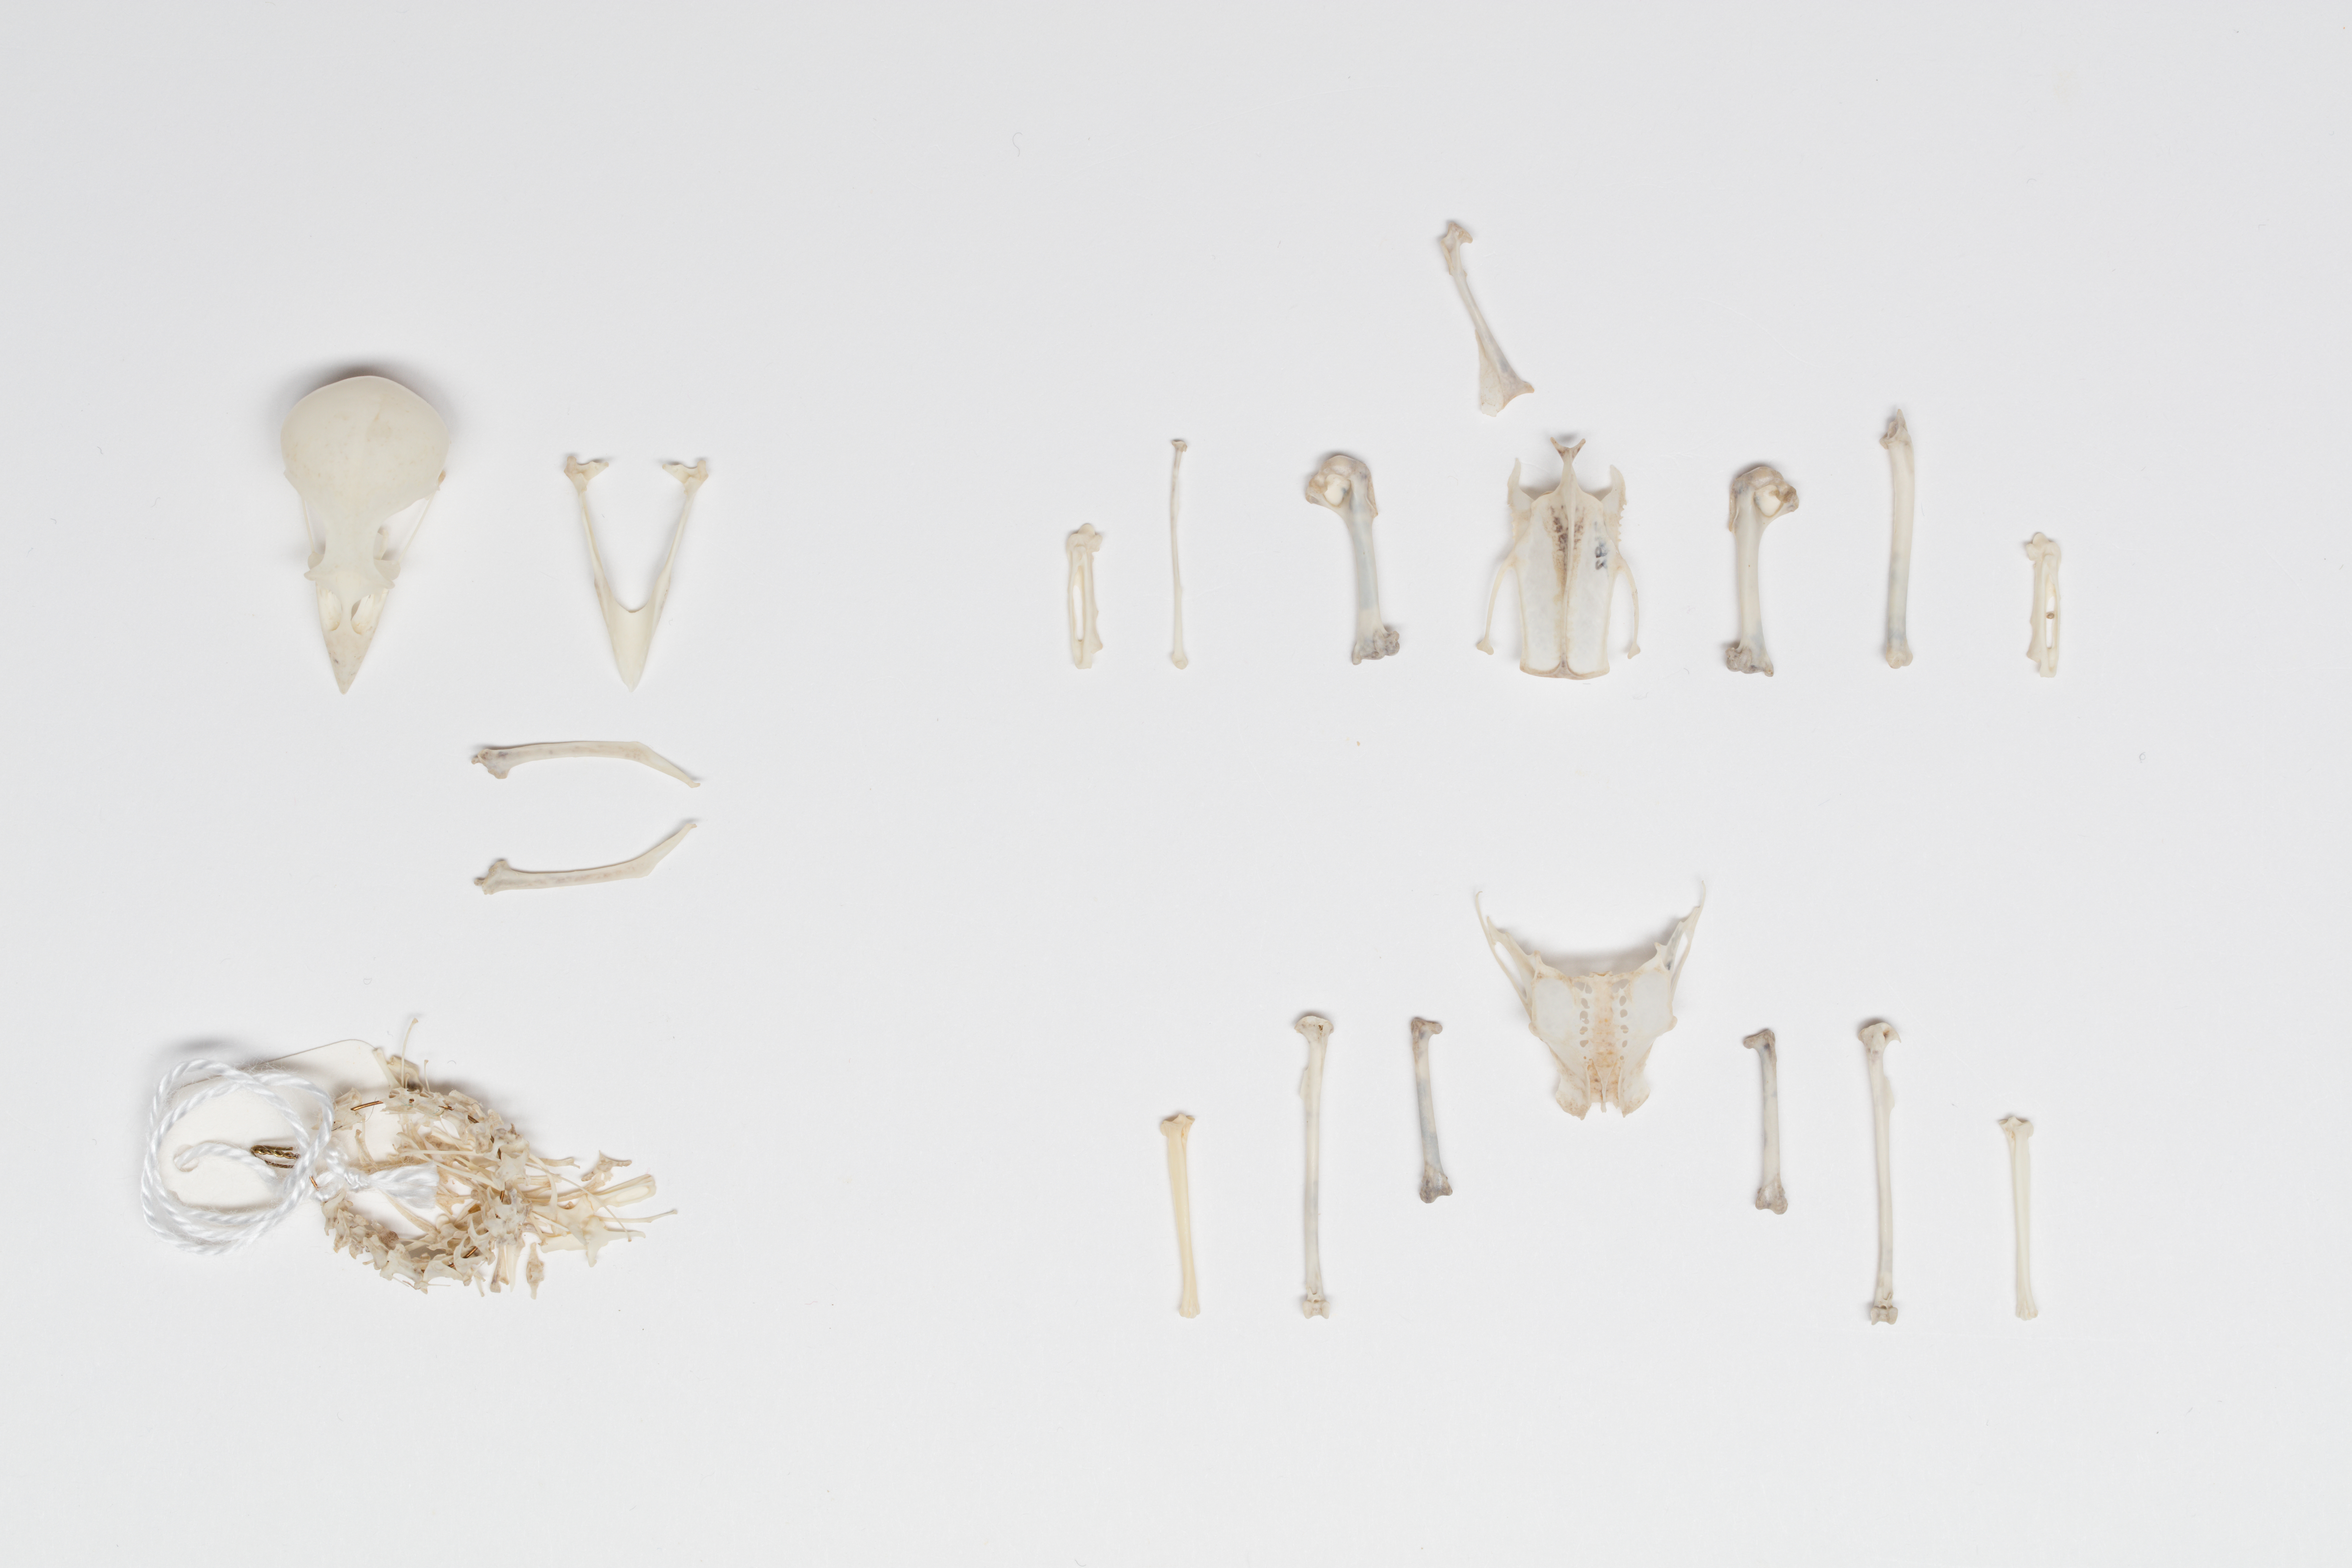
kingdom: Animalia
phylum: Chordata
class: Aves
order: Passeriformes
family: Fringillidae
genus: Fringilla
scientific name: Fringilla coelebs
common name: Common chaffinch
